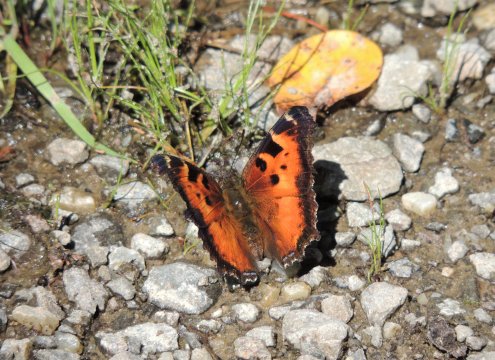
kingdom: Animalia
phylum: Arthropoda
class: Insecta
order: Lepidoptera
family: Nymphalidae
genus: Nymphalis
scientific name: Nymphalis californica
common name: California Tortoiseshell
